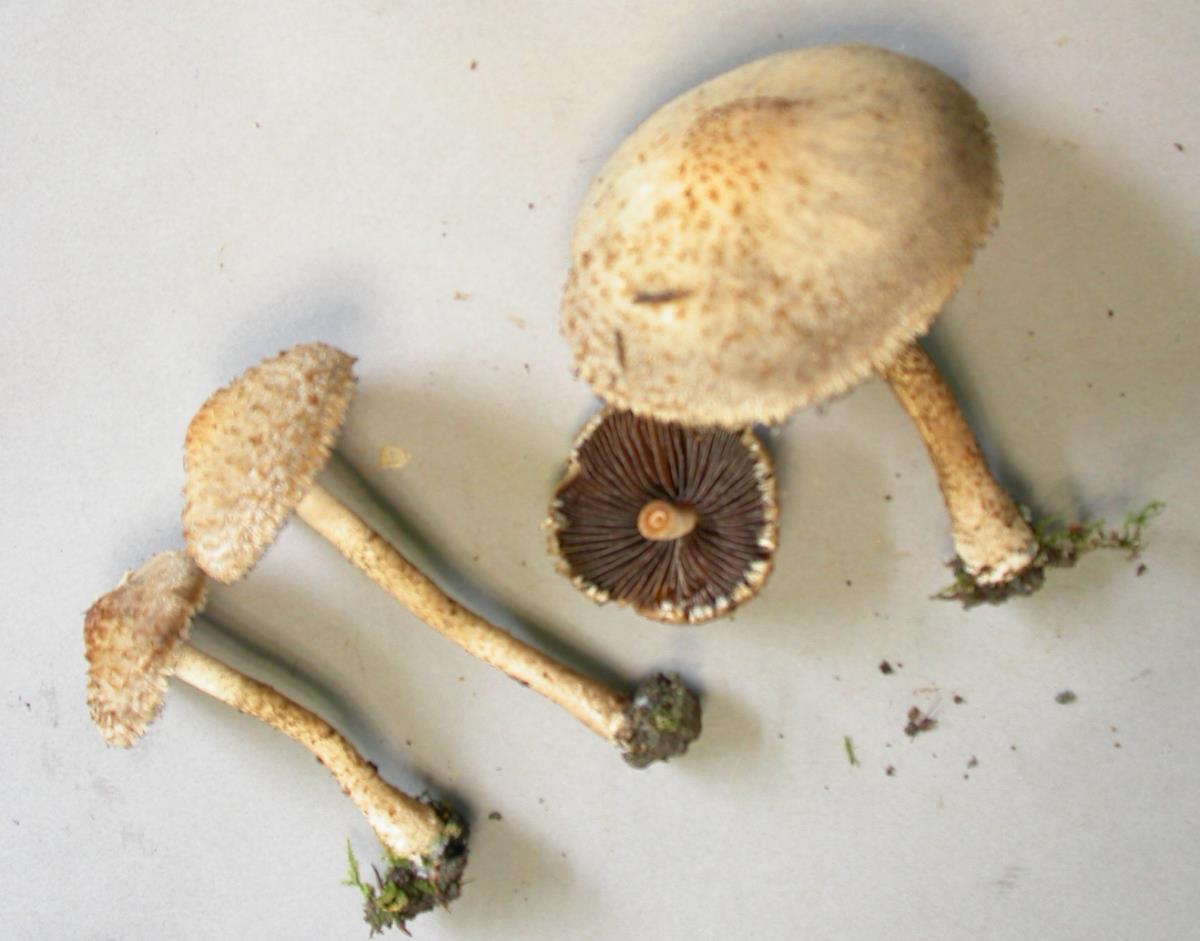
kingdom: Fungi
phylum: Basidiomycota
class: Agaricomycetes
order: Agaricales
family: Psathyrellaceae
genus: Lacrymaria
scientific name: Lacrymaria lacrymabunda
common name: Weeping widow
